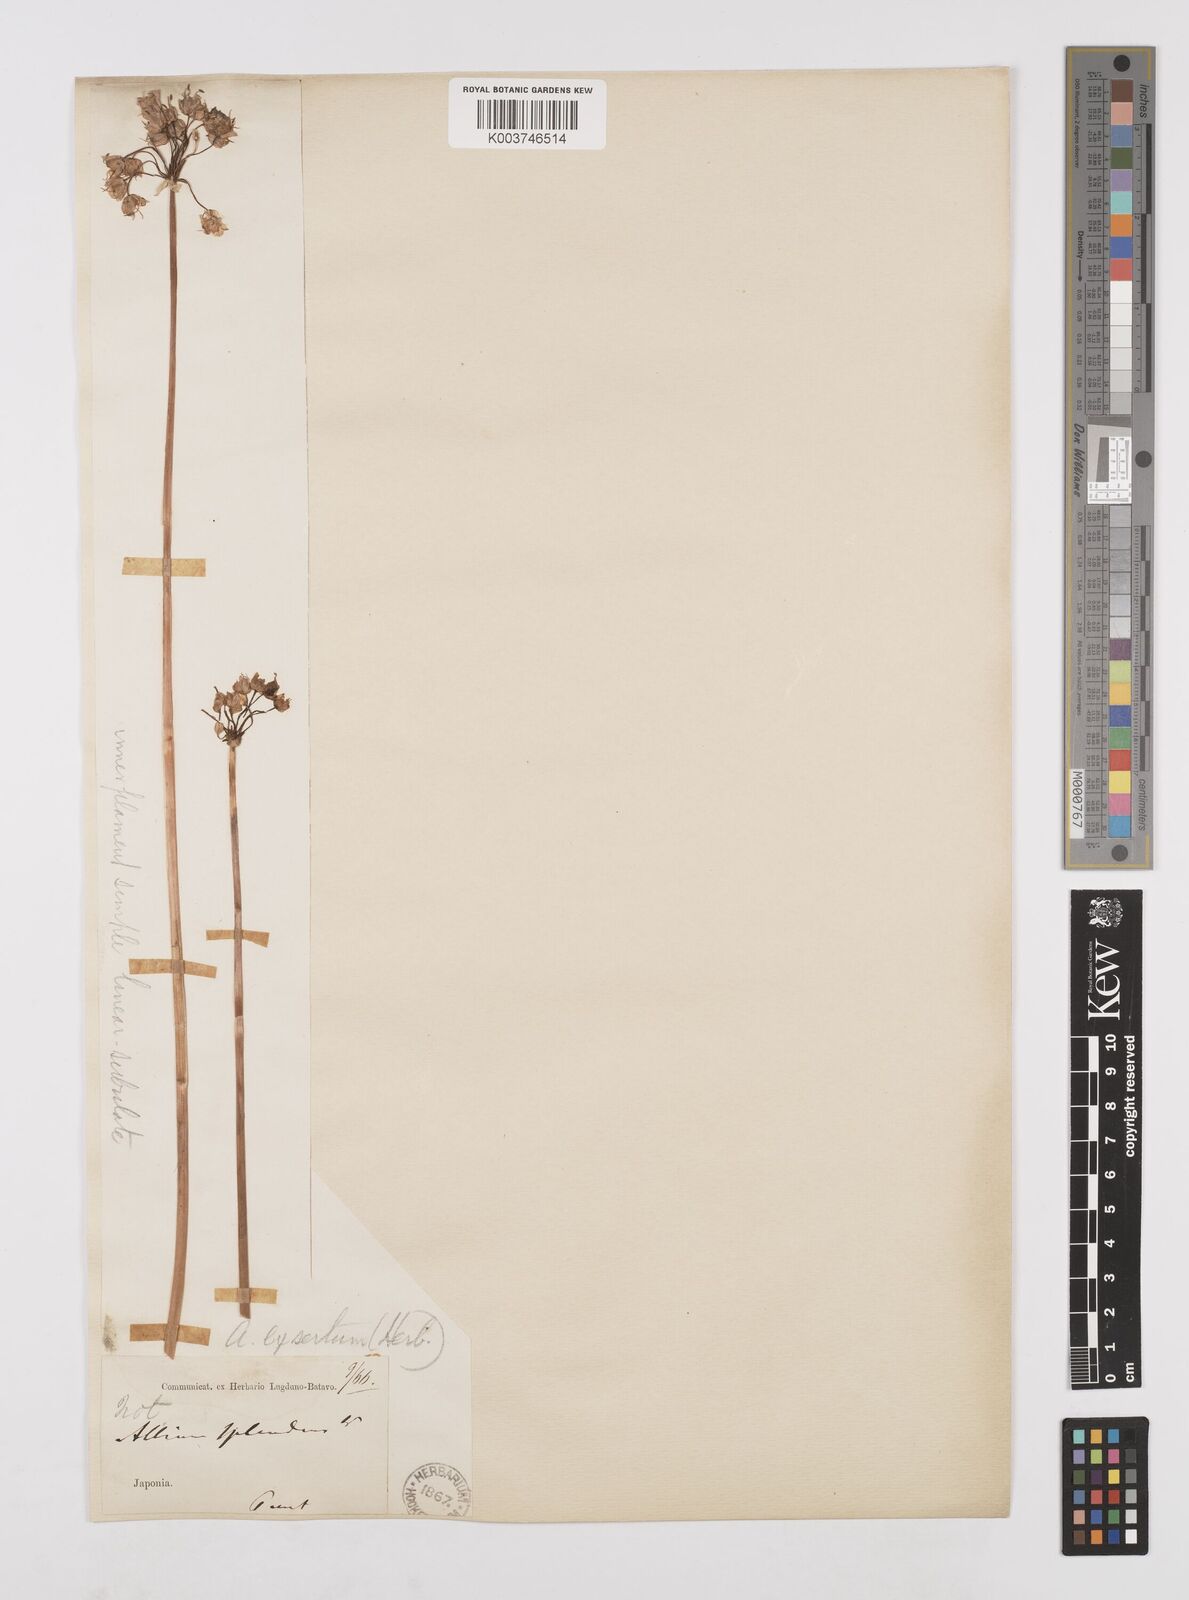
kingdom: Plantae
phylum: Tracheophyta
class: Liliopsida
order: Asparagales
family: Amaryllidaceae
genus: Allium
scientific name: Allium chinense
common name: Japanese scallion
